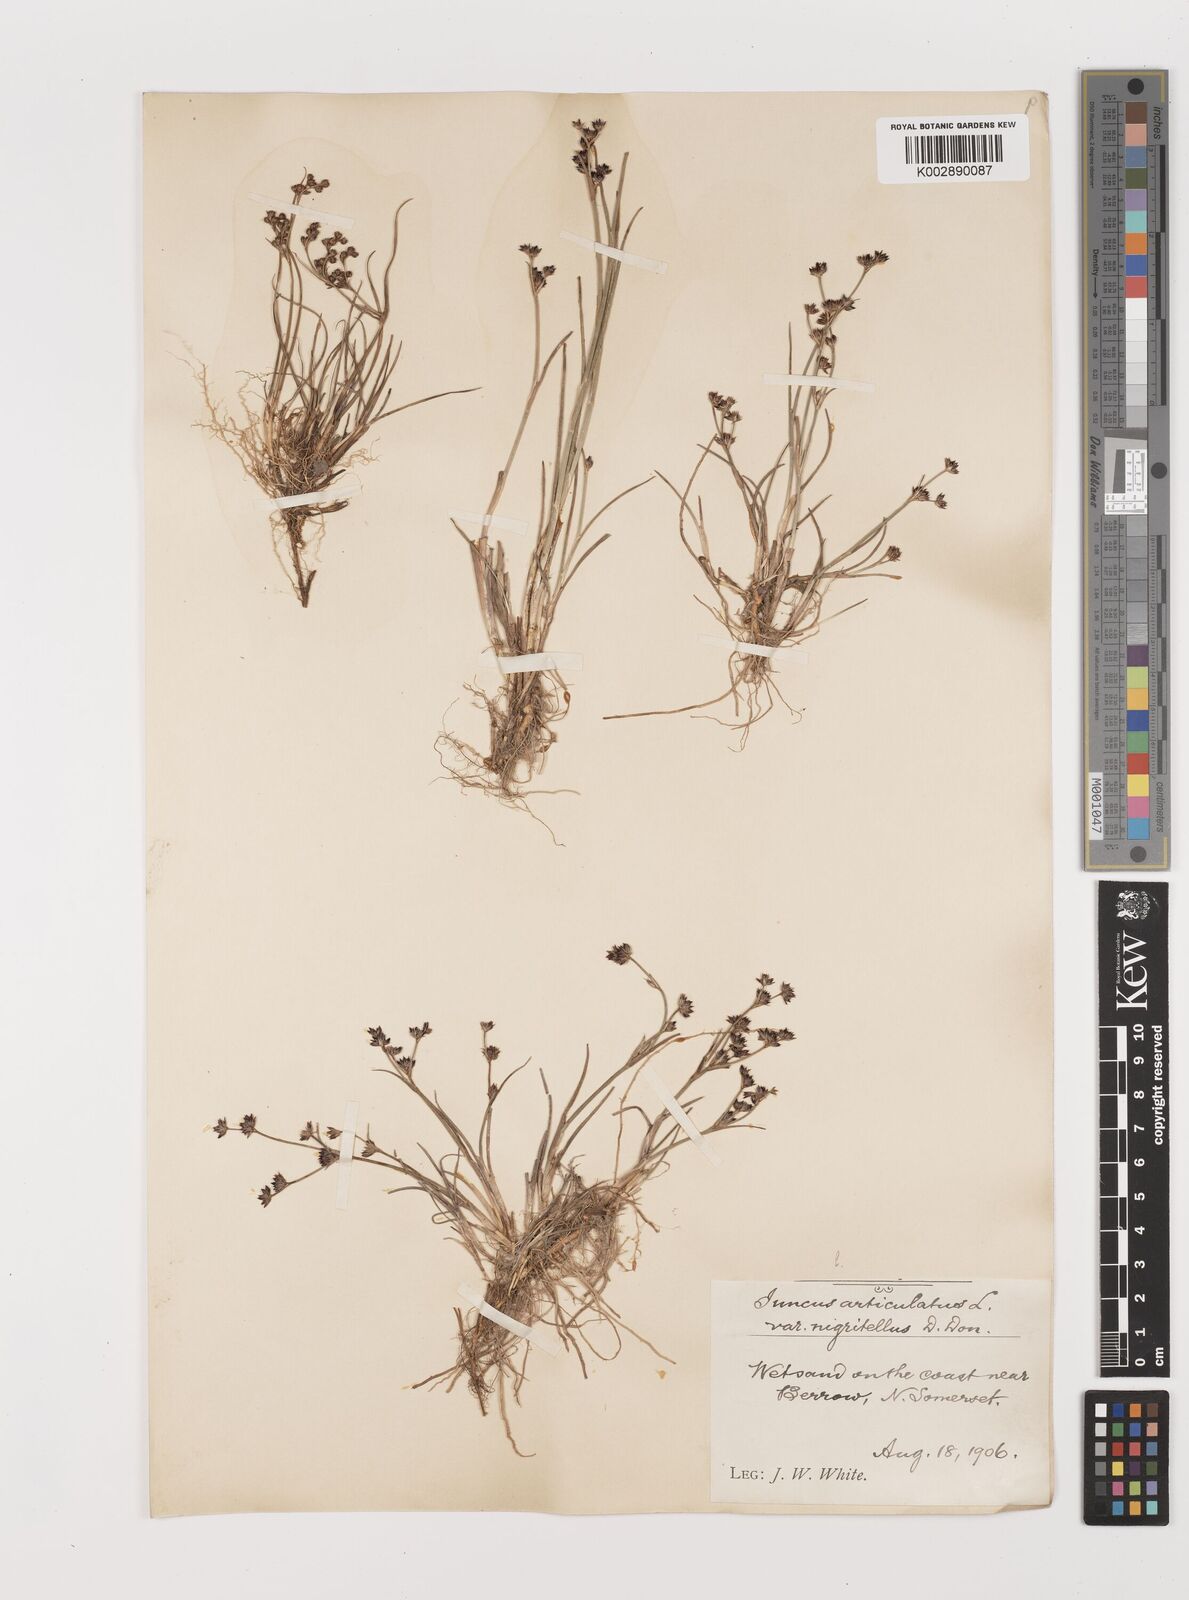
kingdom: Plantae
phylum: Tracheophyta
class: Liliopsida
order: Poales
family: Juncaceae
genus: Juncus
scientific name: Juncus articulatus
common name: Jointed rush
